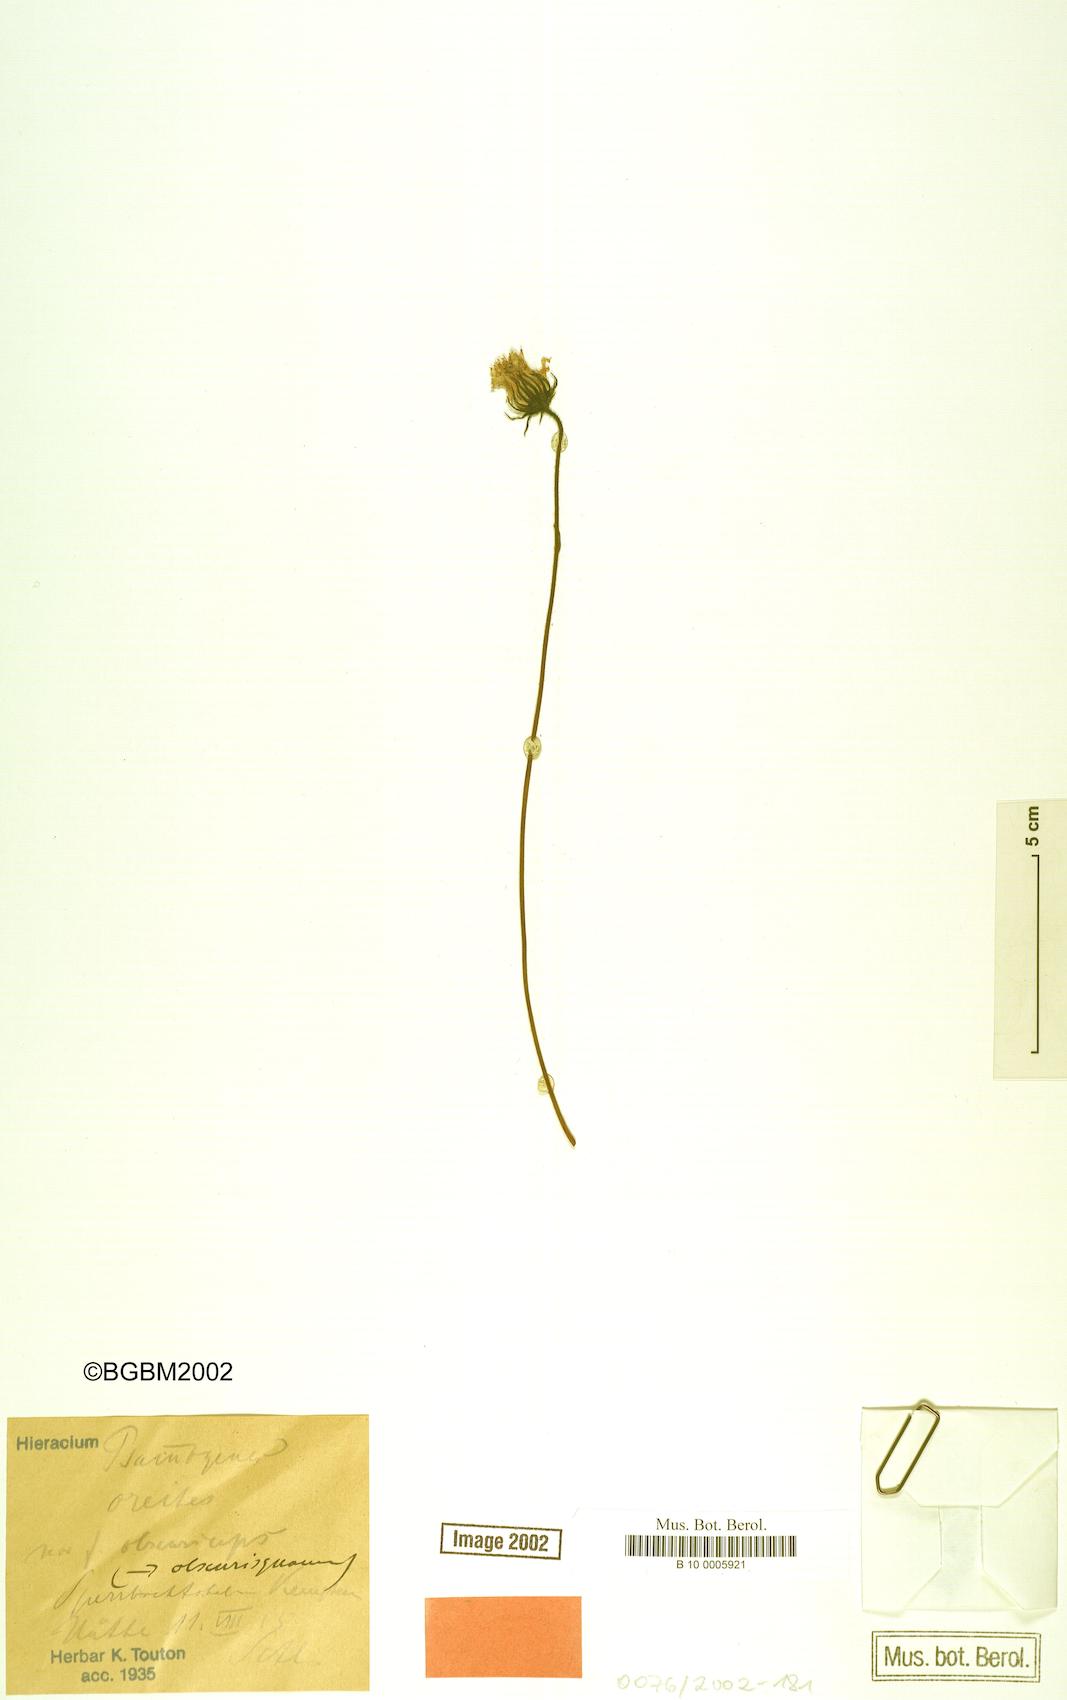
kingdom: Plantae
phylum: Tracheophyta
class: Magnoliopsida
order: Asterales
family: Asteraceae
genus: Hieracium
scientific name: Hieracium psammogenes
